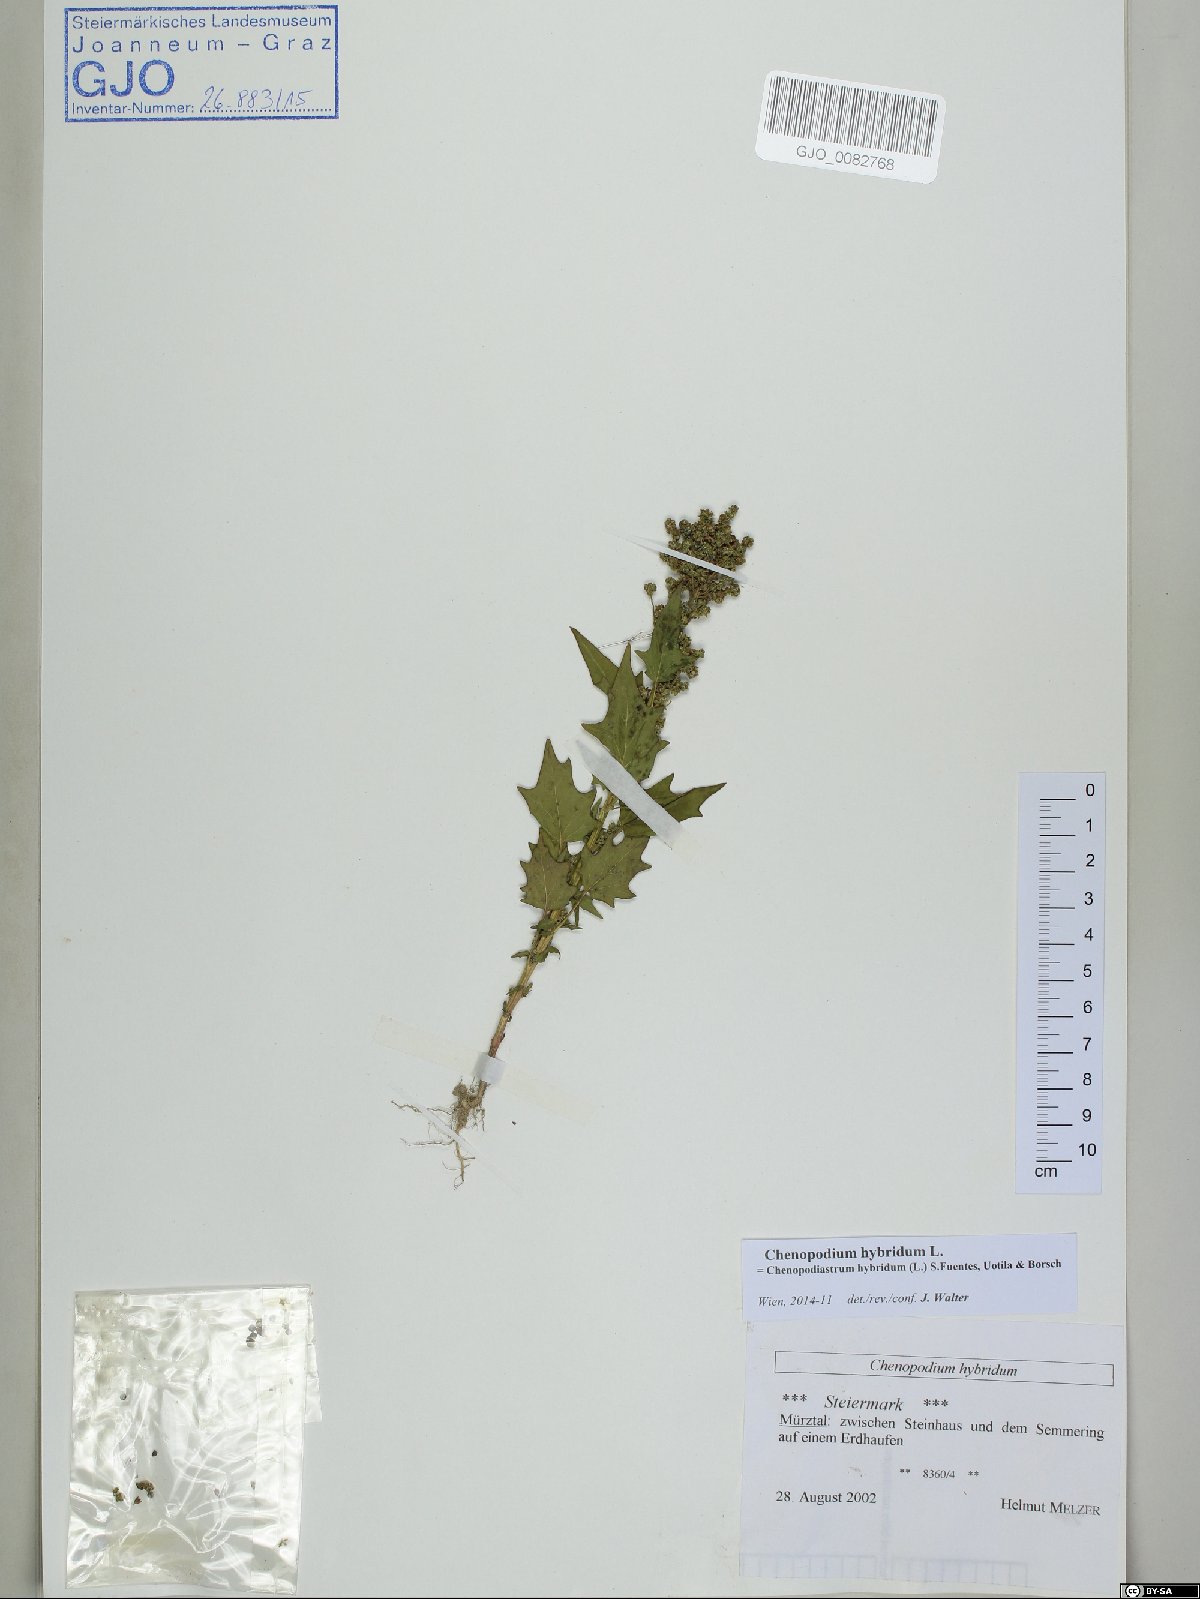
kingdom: Plantae
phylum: Tracheophyta
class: Magnoliopsida
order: Caryophyllales
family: Amaranthaceae
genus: Chenopodiastrum
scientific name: Chenopodiastrum hybridum
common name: Mapleleaf goosefoot
